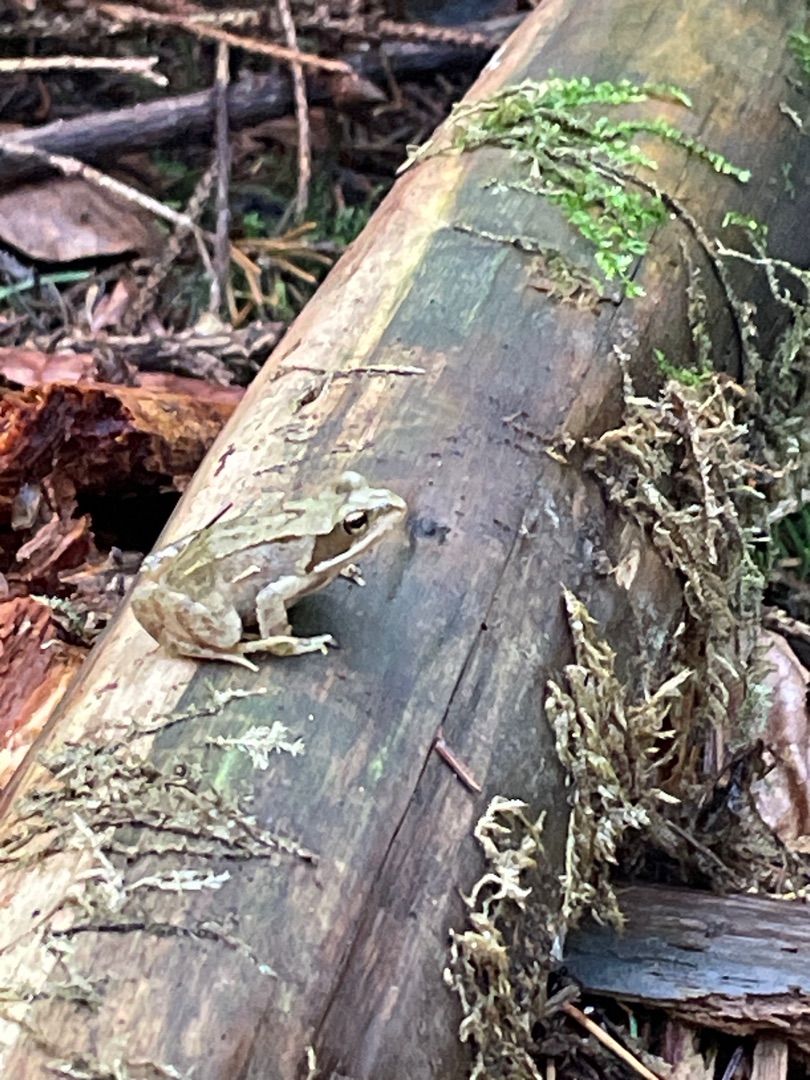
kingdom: Animalia
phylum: Chordata
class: Amphibia
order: Anura
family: Ranidae
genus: Rana
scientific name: Rana temporaria
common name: Butsnudet frø
